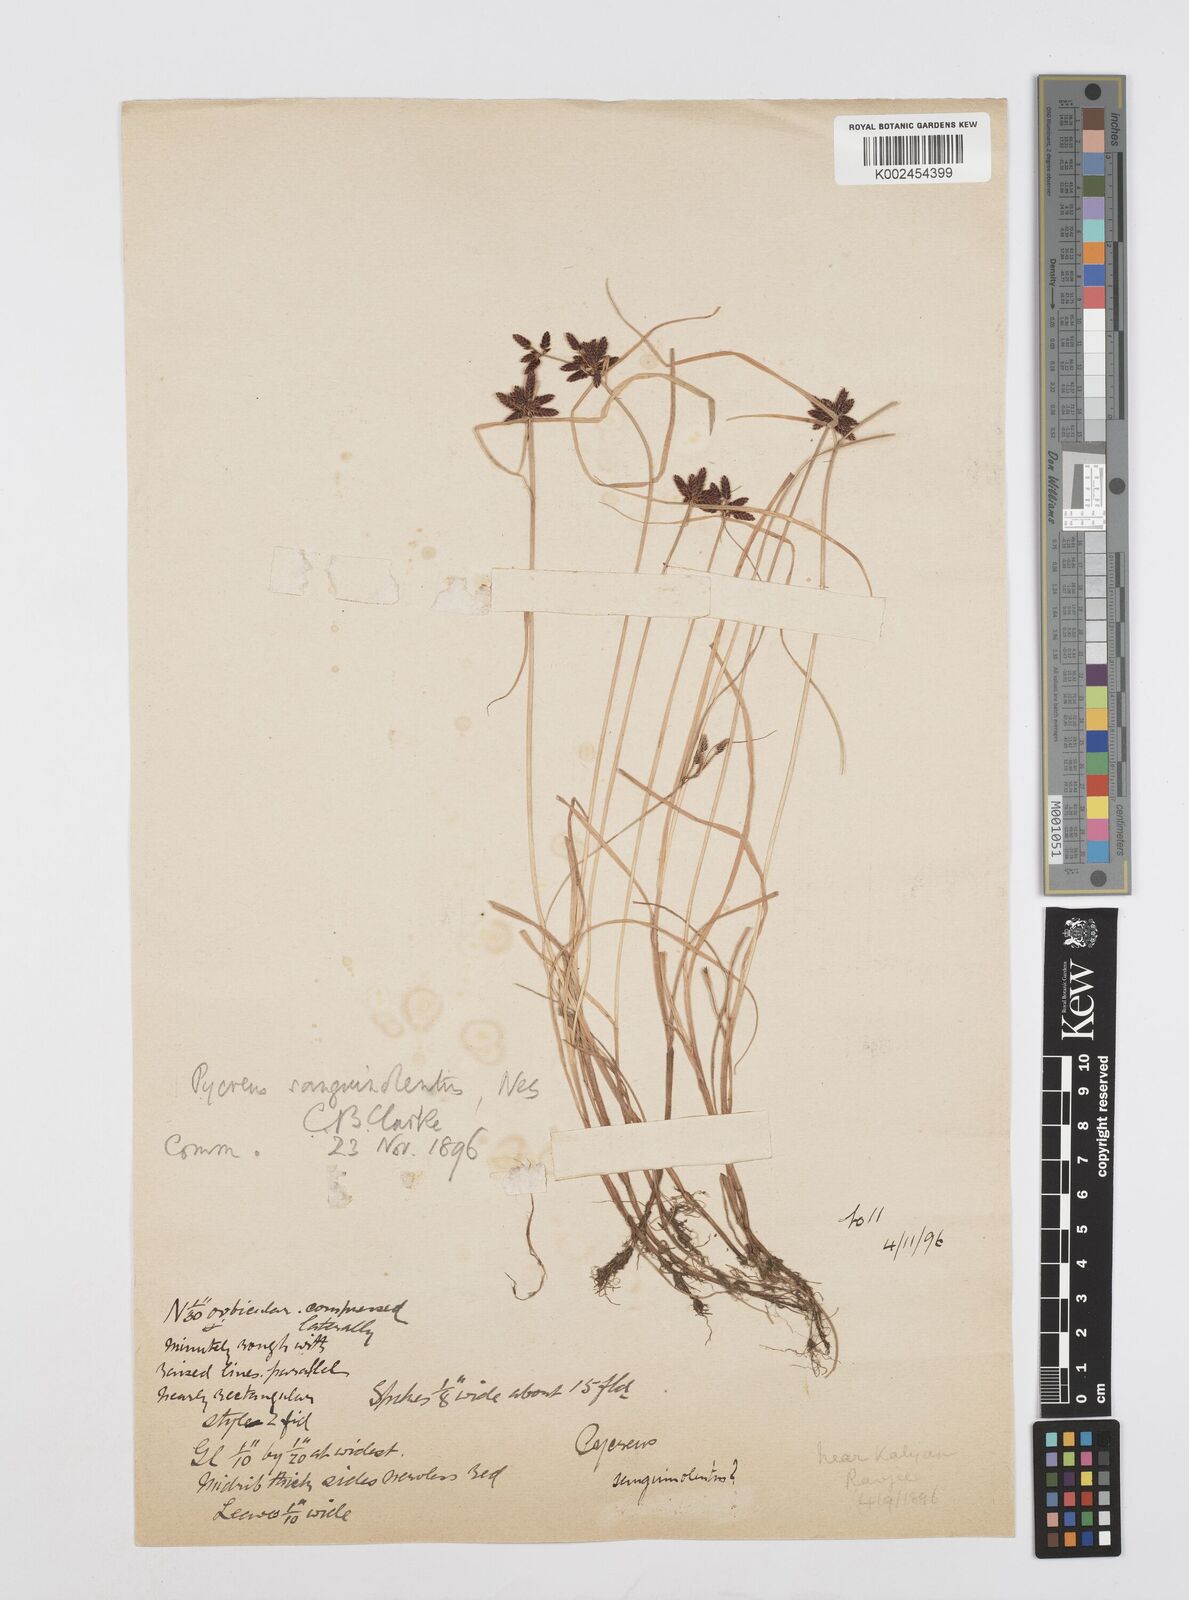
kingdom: Plantae
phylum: Tracheophyta
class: Liliopsida
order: Poales
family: Cyperaceae
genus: Cyperus
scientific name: Cyperus sanguinolentus
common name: Purpleglume flatsedge
